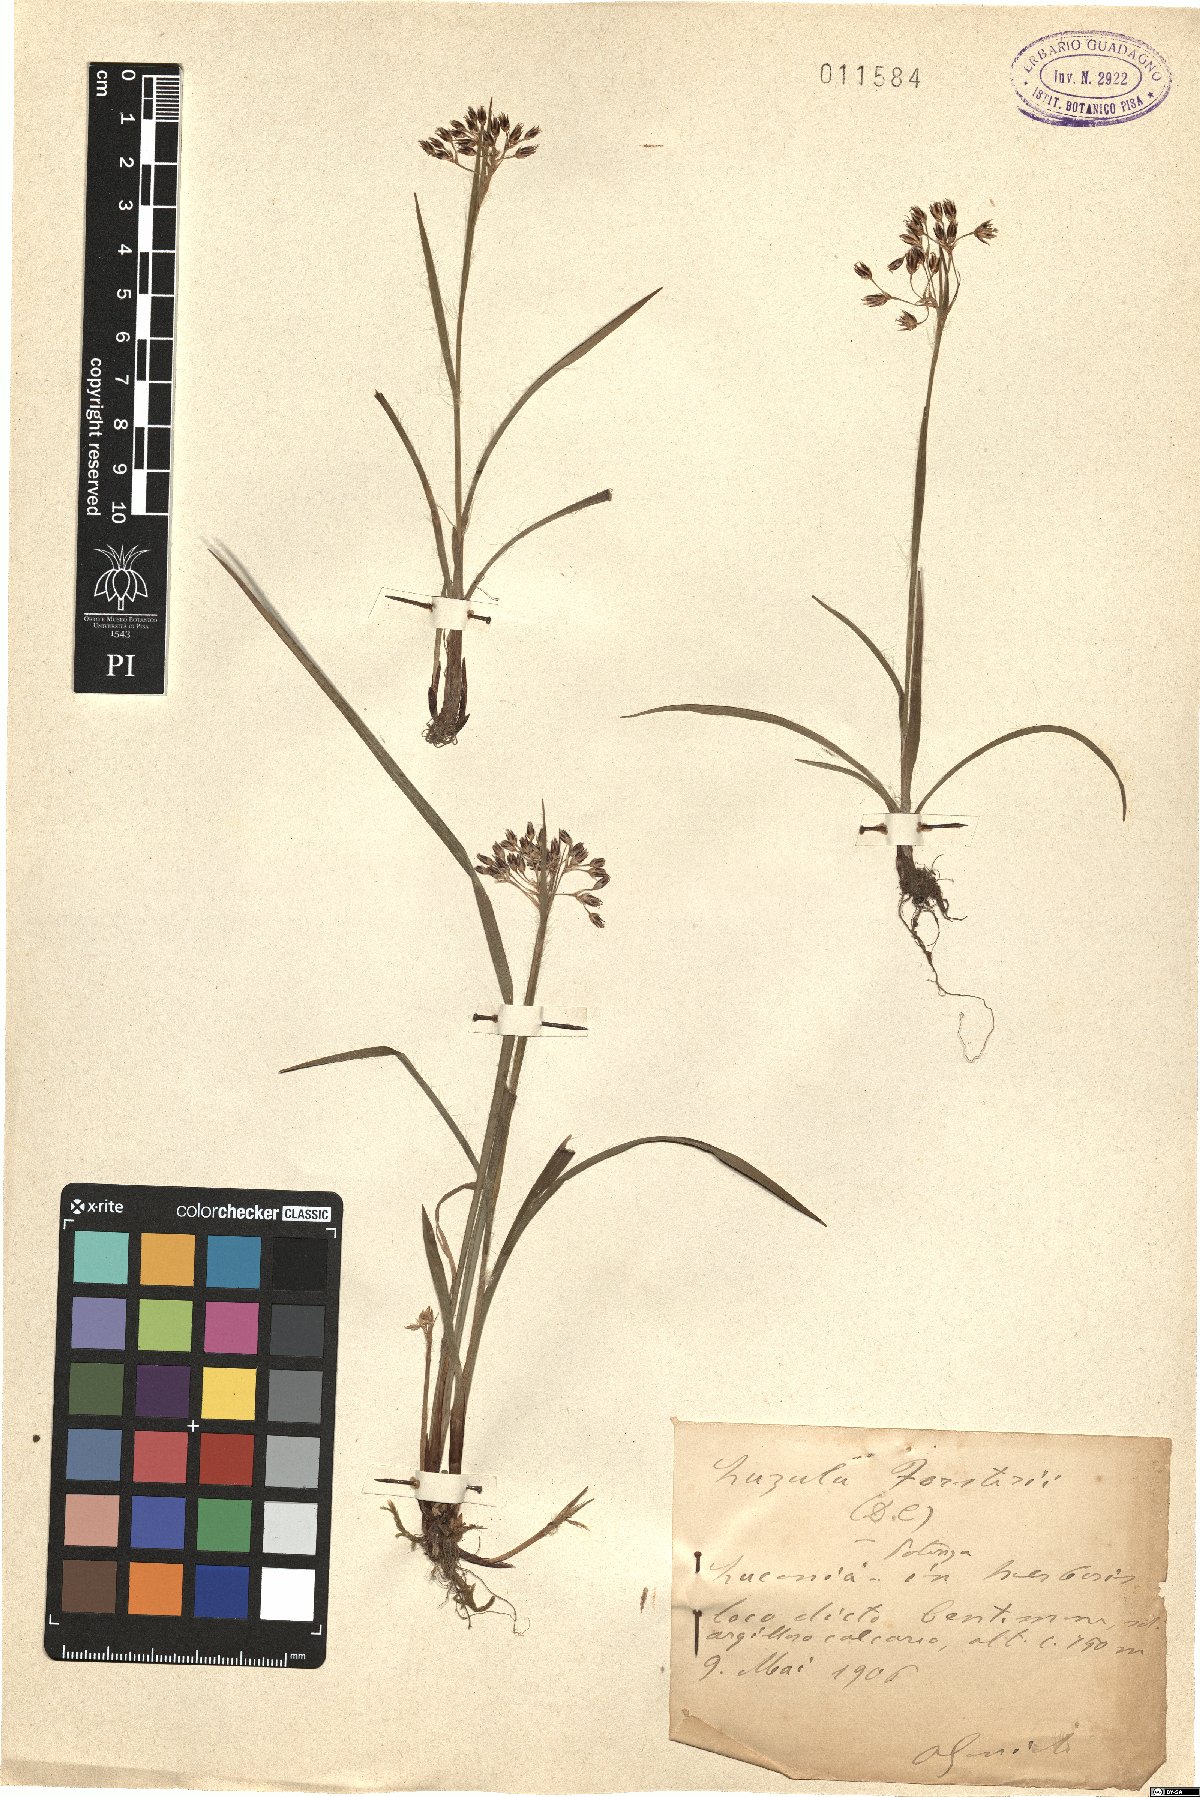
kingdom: Plantae
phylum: Tracheophyta
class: Liliopsida
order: Poales
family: Juncaceae
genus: Luzula
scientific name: Luzula forsteri
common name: Southern wood-rush
